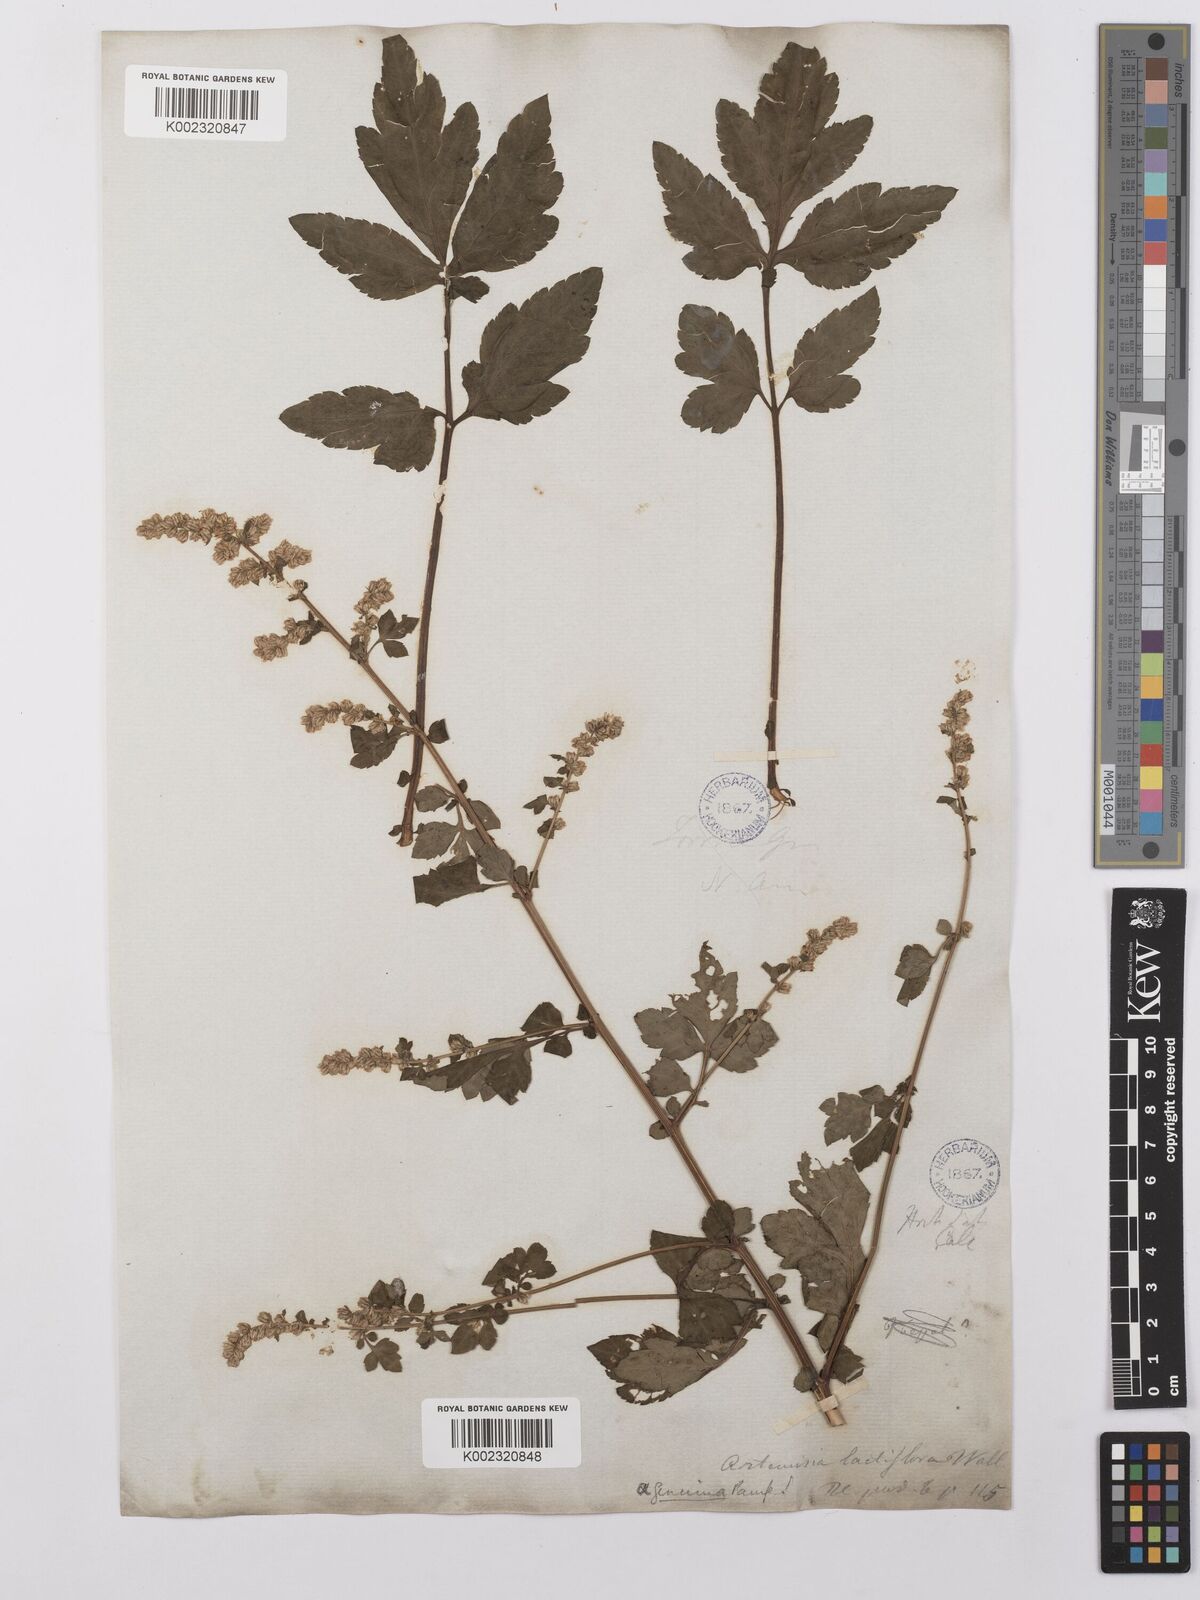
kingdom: Plantae
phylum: Tracheophyta
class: Magnoliopsida
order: Asterales
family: Asteraceae
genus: Artemisia
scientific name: Artemisia lactiflora
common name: White mugwort
